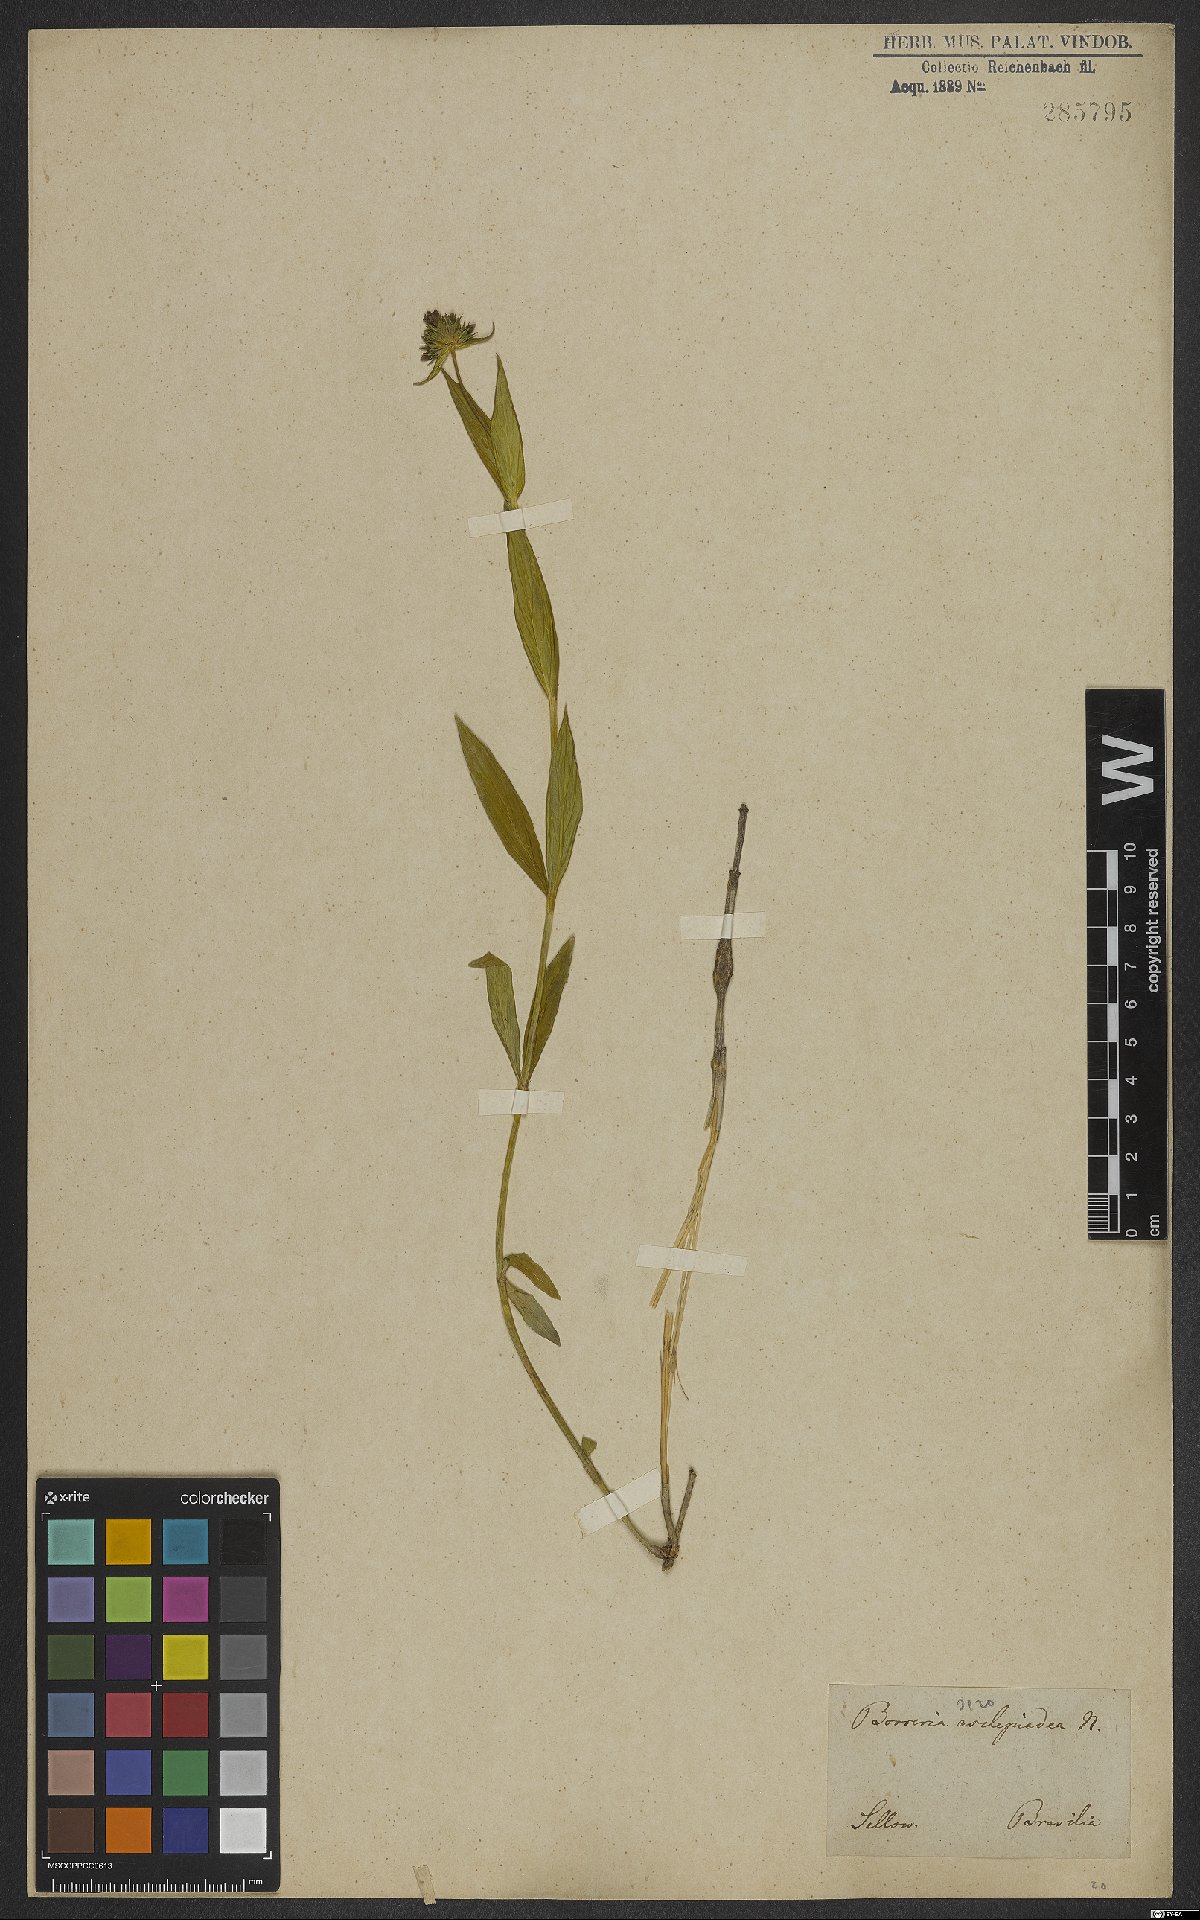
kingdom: Plantae
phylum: Tracheophyta
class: Magnoliopsida
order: Gentianales
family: Rubiaceae
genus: Spermacoce
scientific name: Spermacoce poaya
